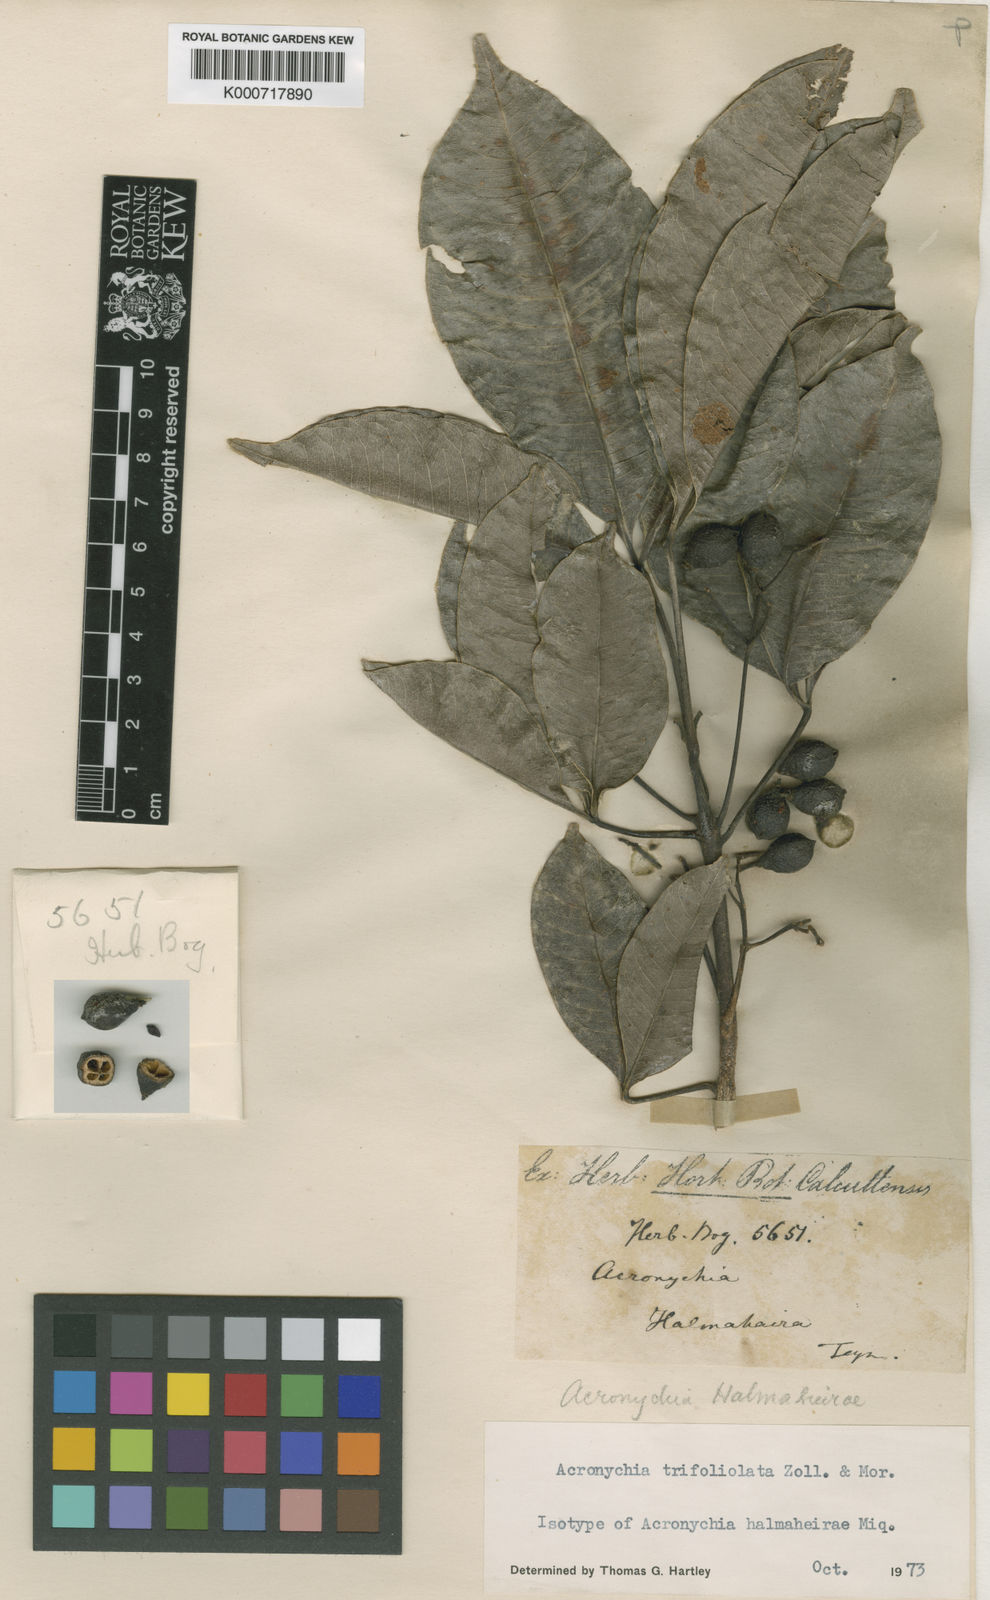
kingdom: Plantae
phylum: Tracheophyta
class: Magnoliopsida
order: Sapindales
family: Rutaceae
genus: Acronychia
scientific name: Acronychia trifoliolata
